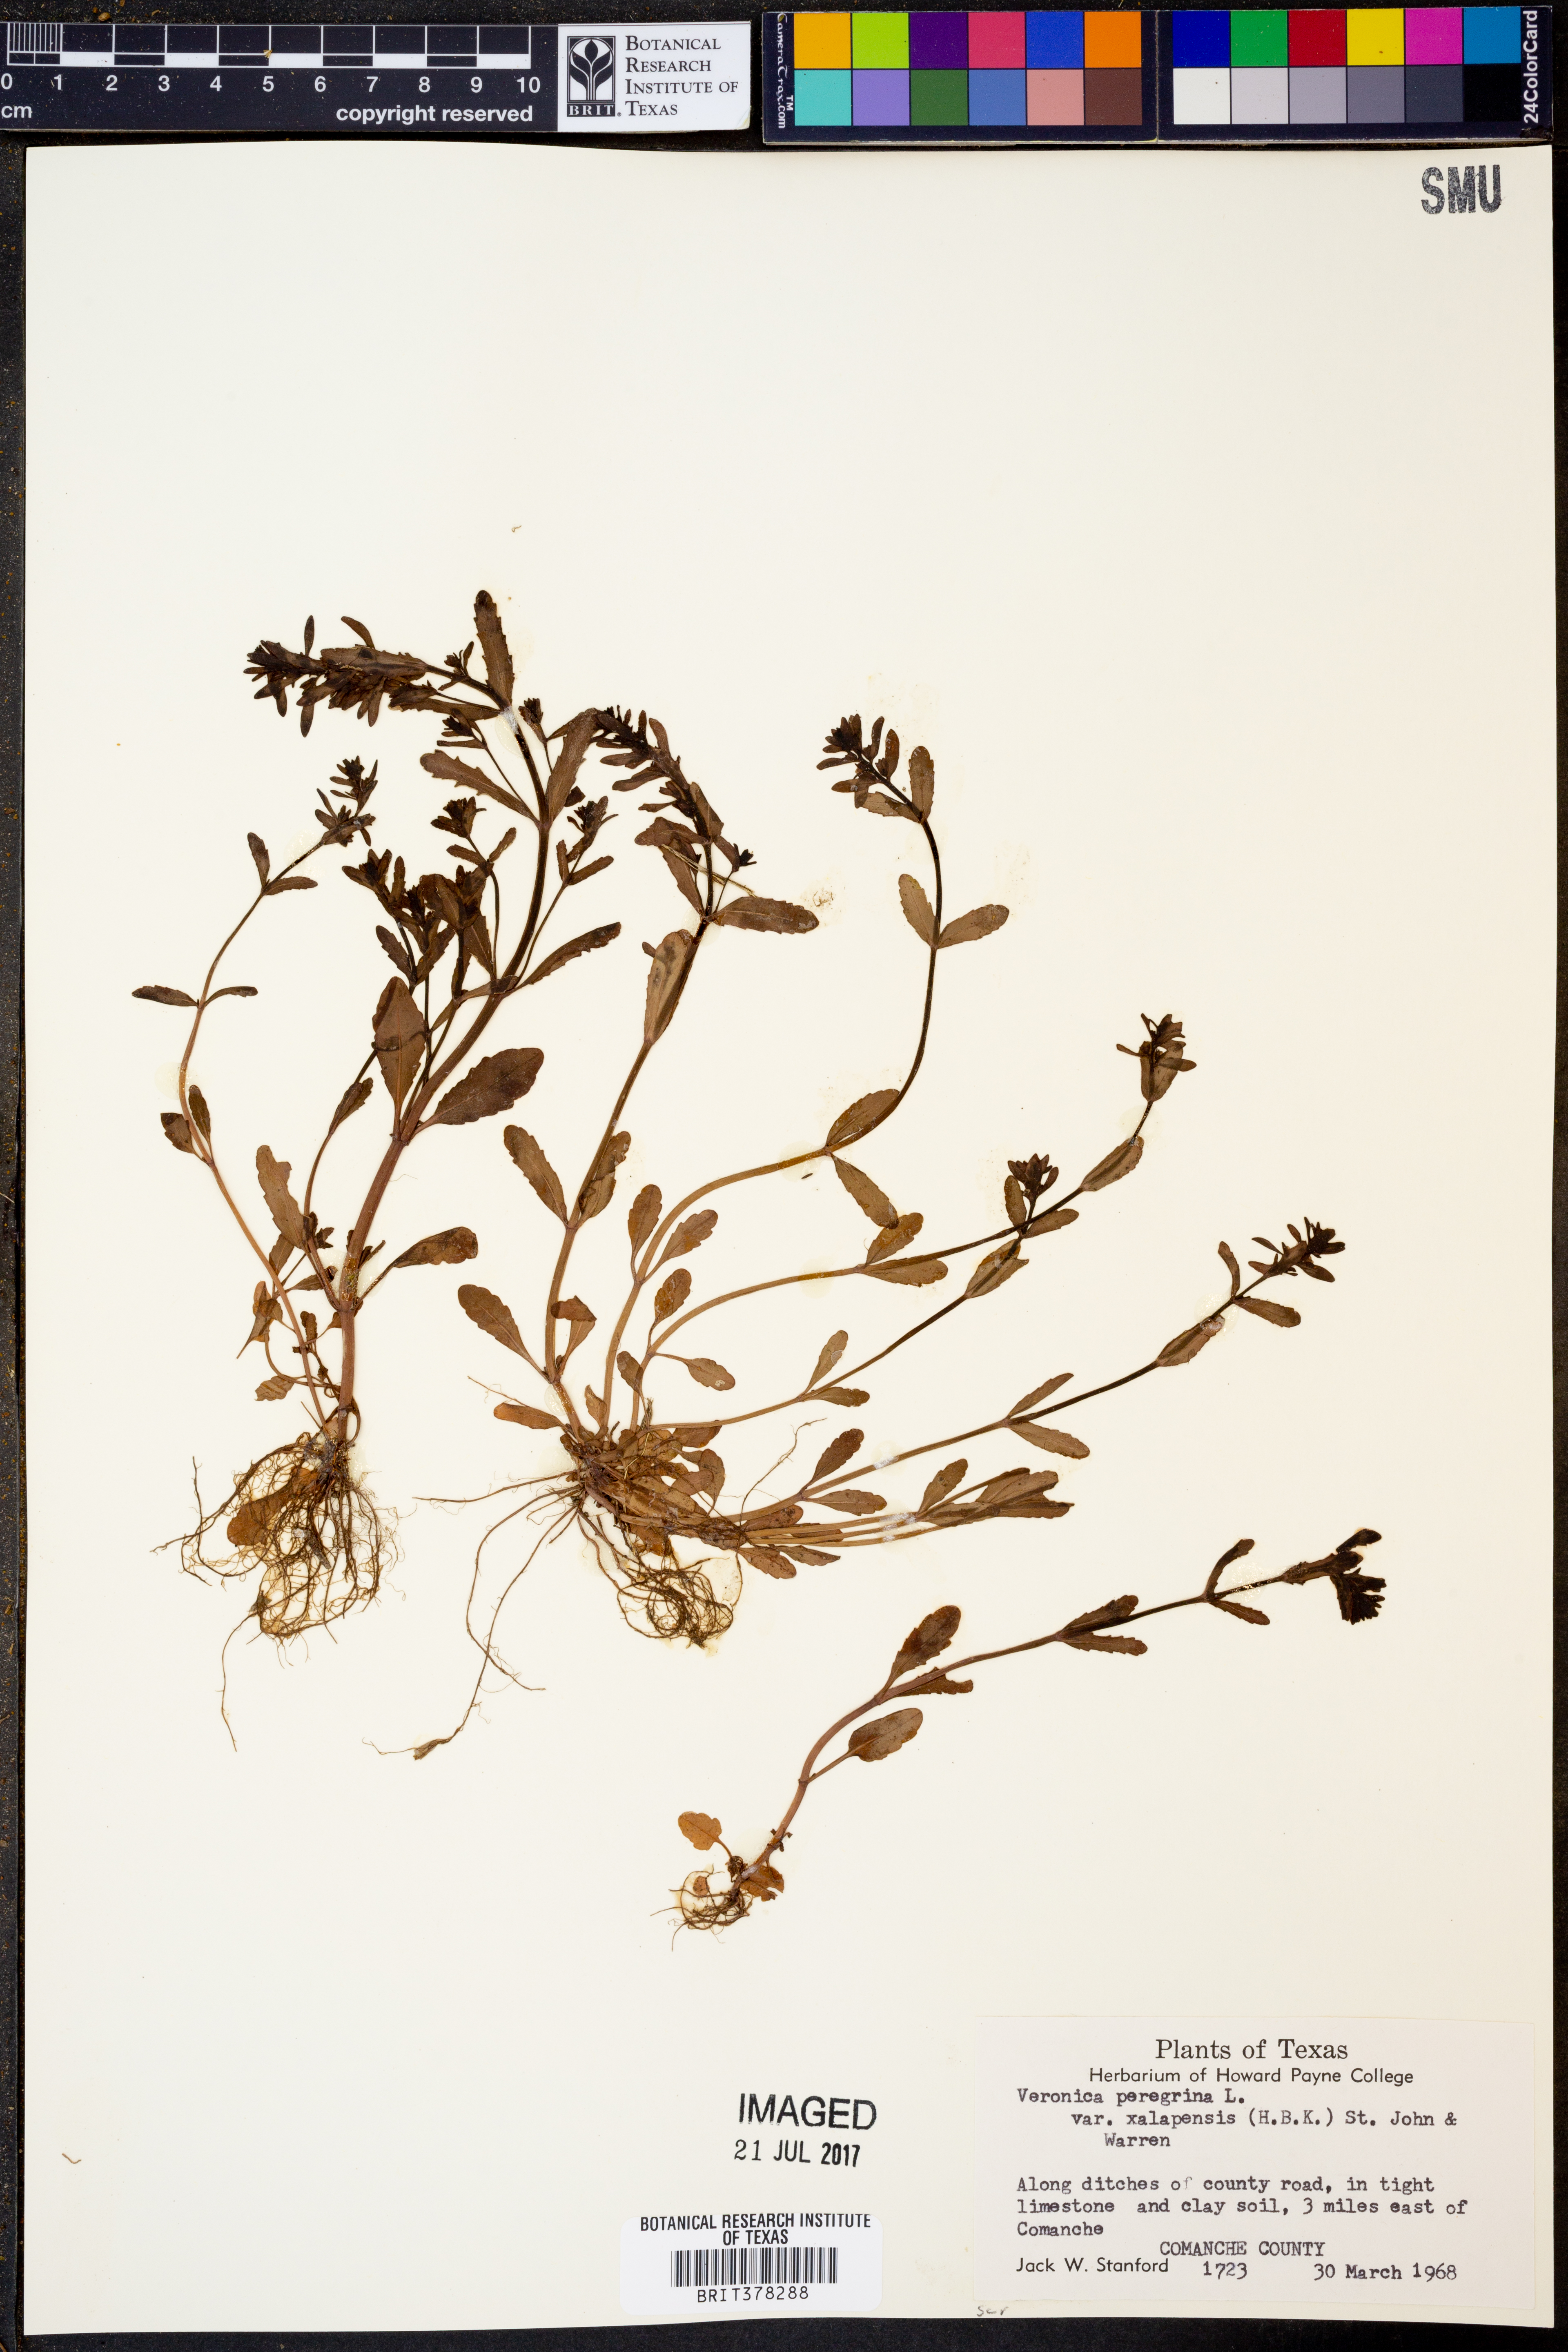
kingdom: Plantae
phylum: Tracheophyta
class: Magnoliopsida
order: Lamiales
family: Plantaginaceae
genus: Veronica
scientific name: Veronica peregrina
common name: Neckweed
